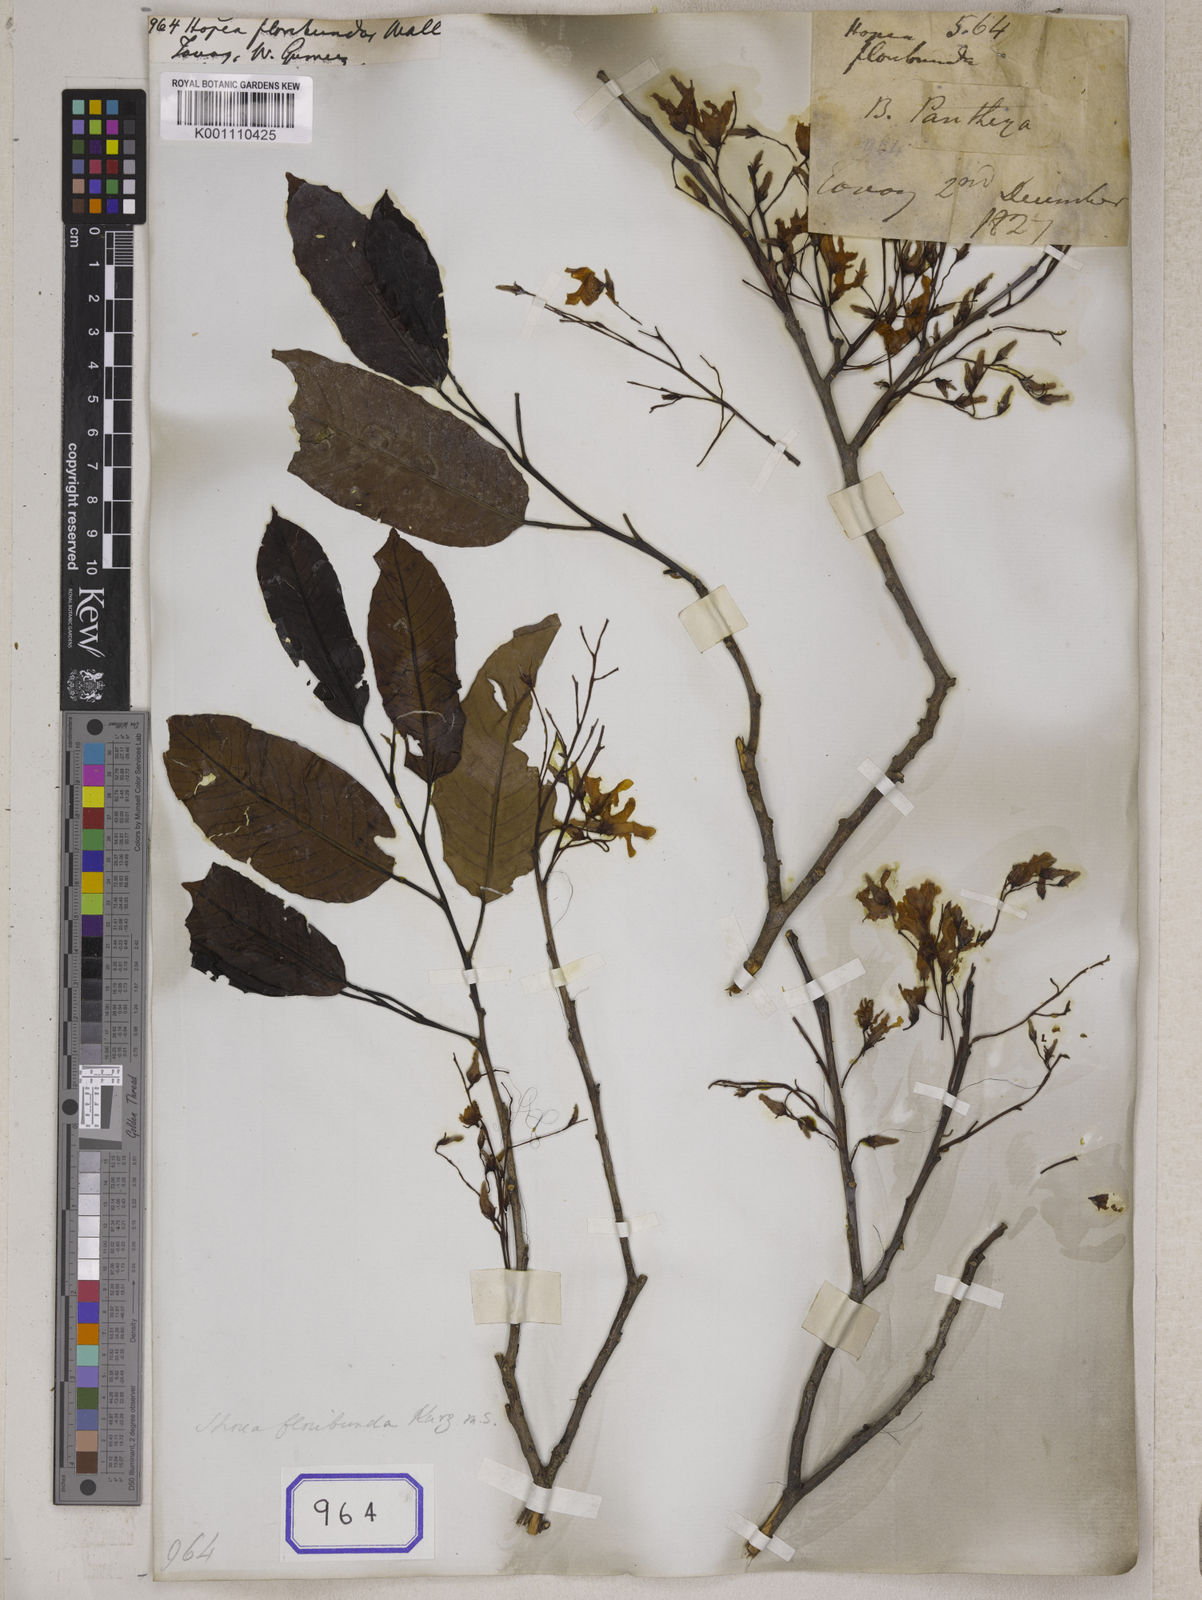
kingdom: Plantae
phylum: Tracheophyta
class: Magnoliopsida
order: Malvales
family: Dipterocarpaceae
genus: Anthoshorea
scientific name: Anthoshorea roxburghii
